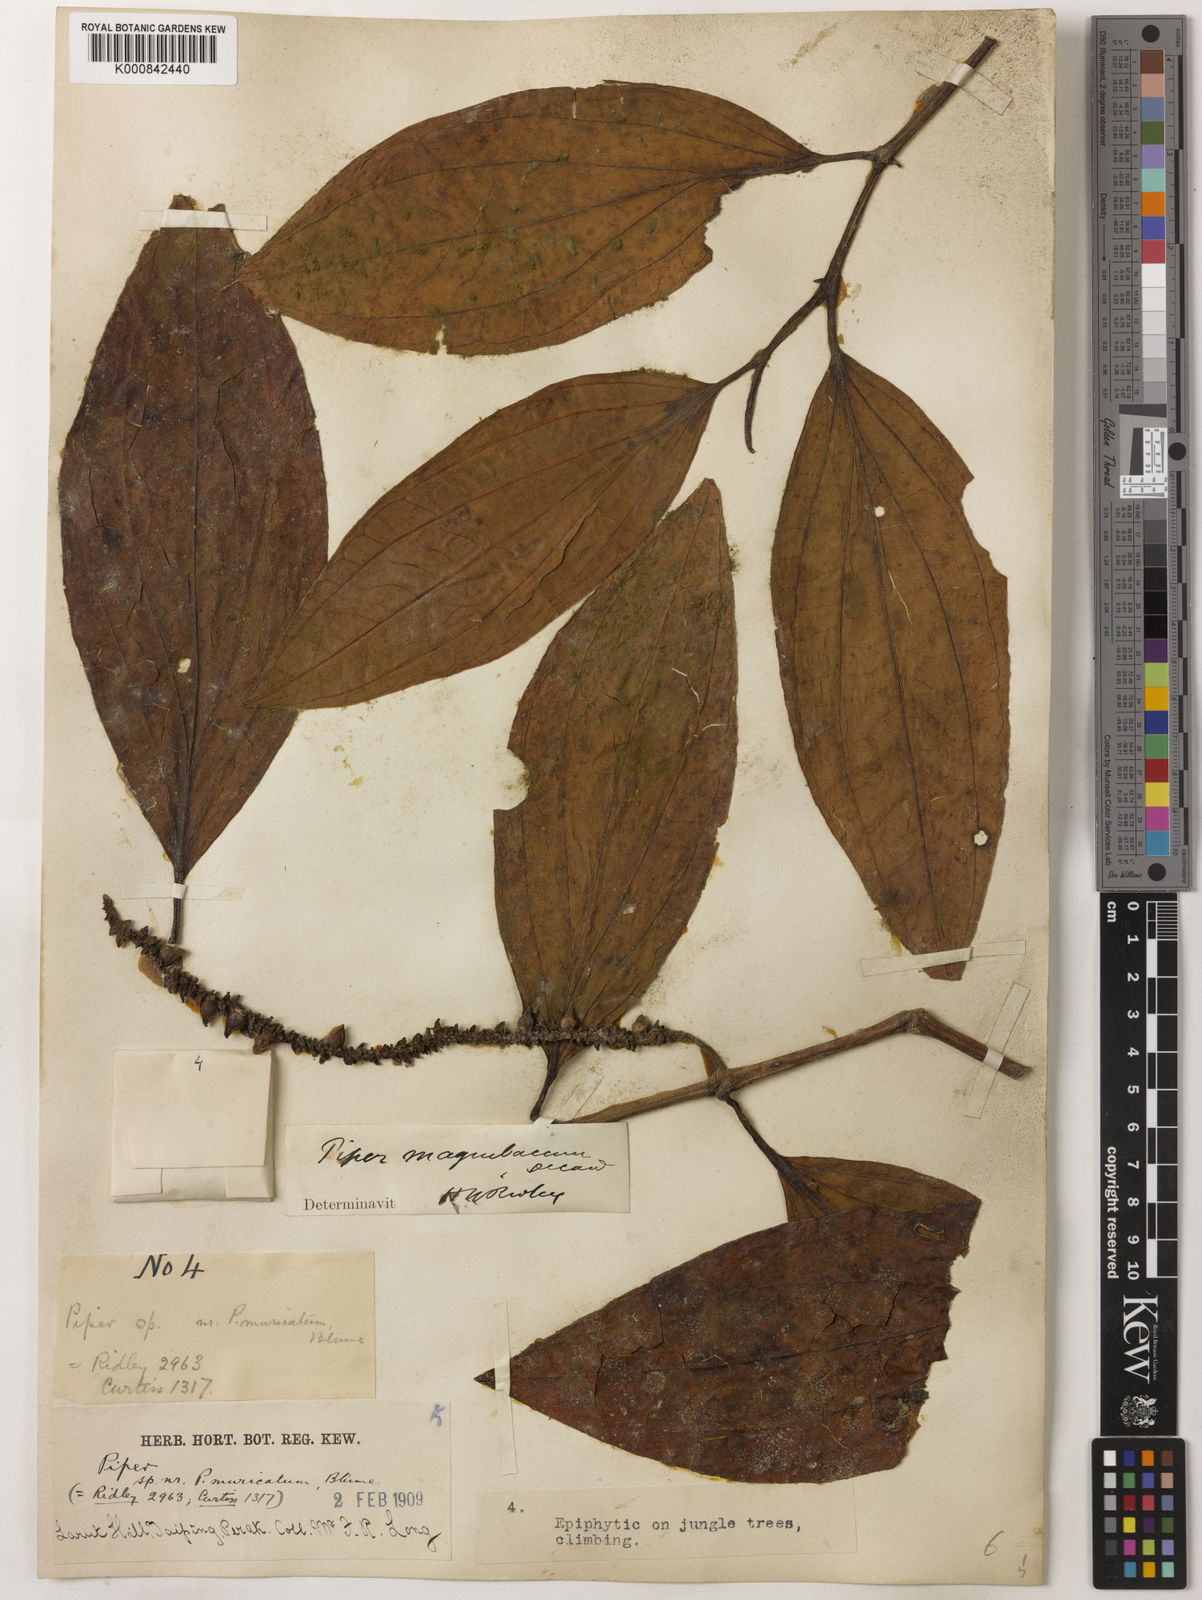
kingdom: Plantae
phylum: Tracheophyta
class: Magnoliopsida
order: Piperales
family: Piperaceae
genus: Piper
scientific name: Piper quinqueangulatum
